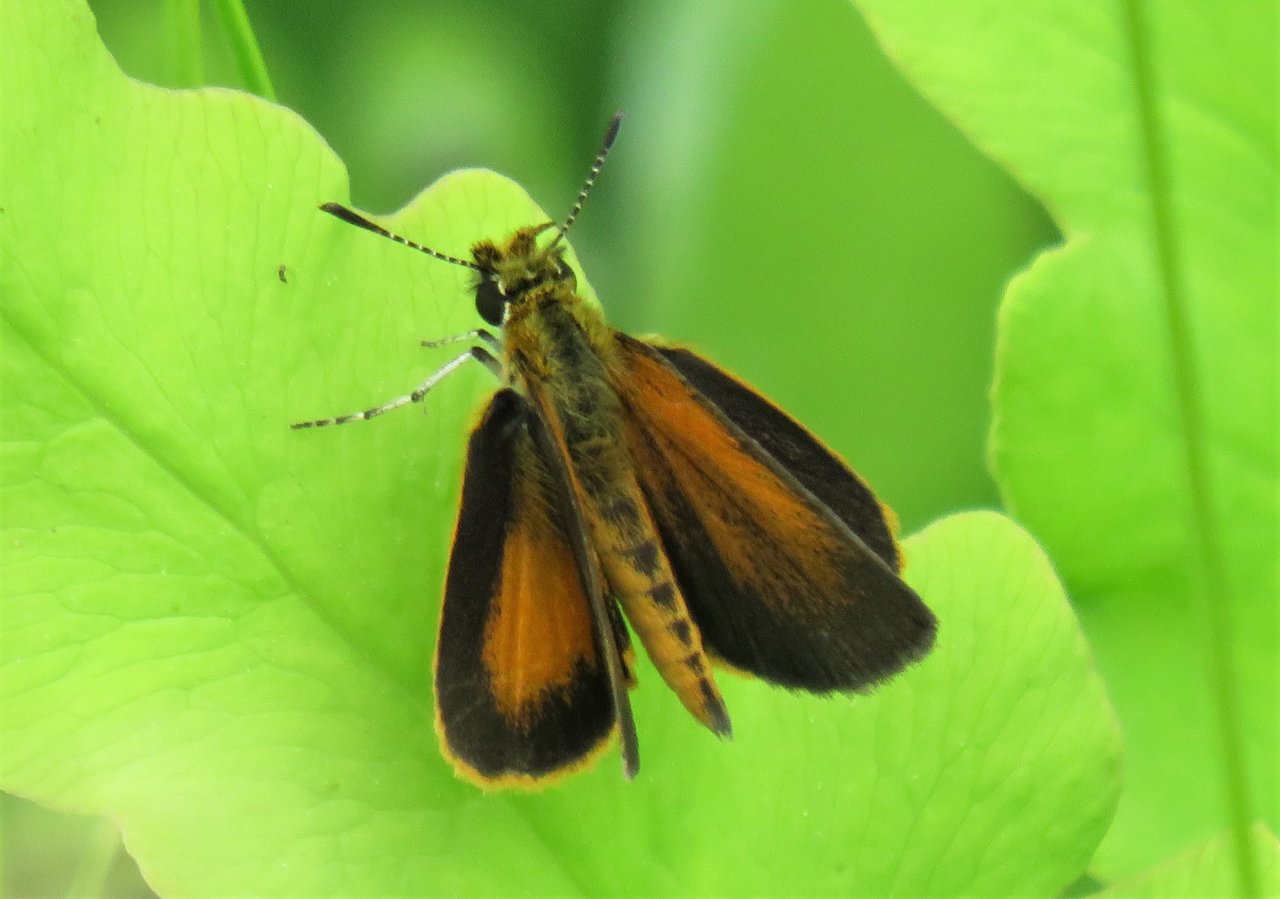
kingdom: Animalia
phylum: Arthropoda
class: Insecta
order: Lepidoptera
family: Hesperiidae
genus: Ancyloxypha
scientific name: Ancyloxypha numitor
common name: Least Skipper
